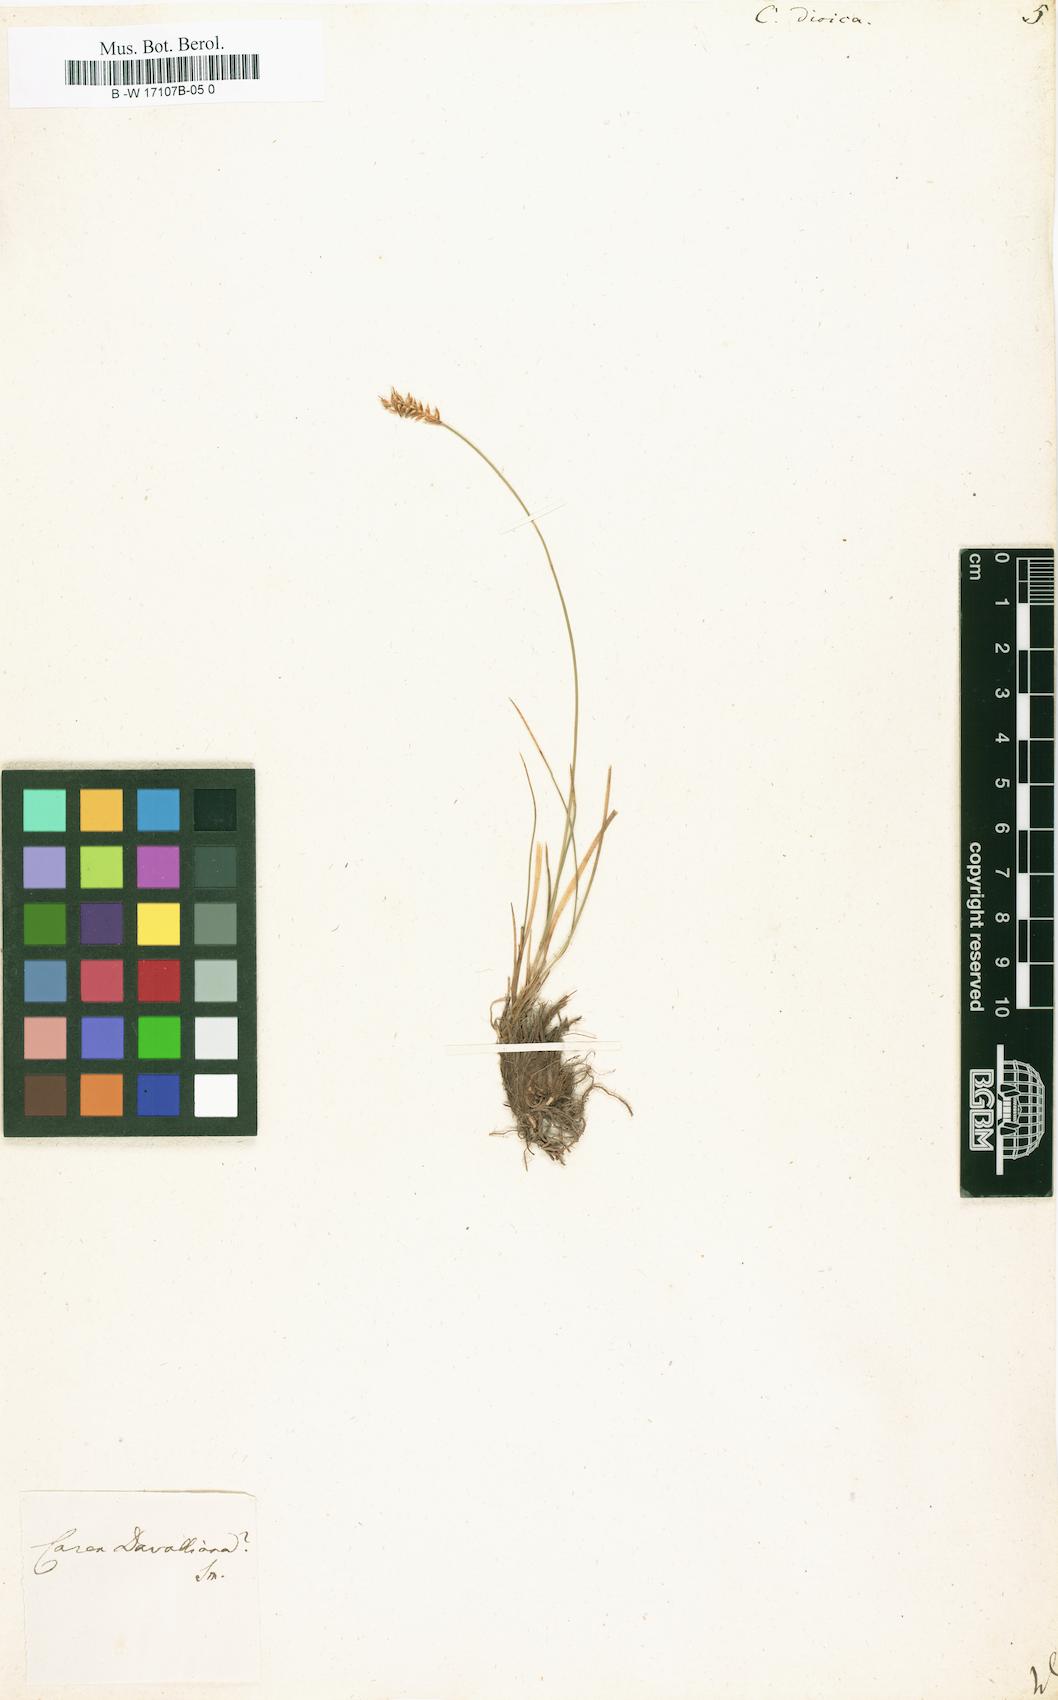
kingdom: Plantae
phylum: Tracheophyta
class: Liliopsida
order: Poales
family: Cyperaceae
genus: Carex
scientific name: Carex dioica
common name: Dioecious sedge
